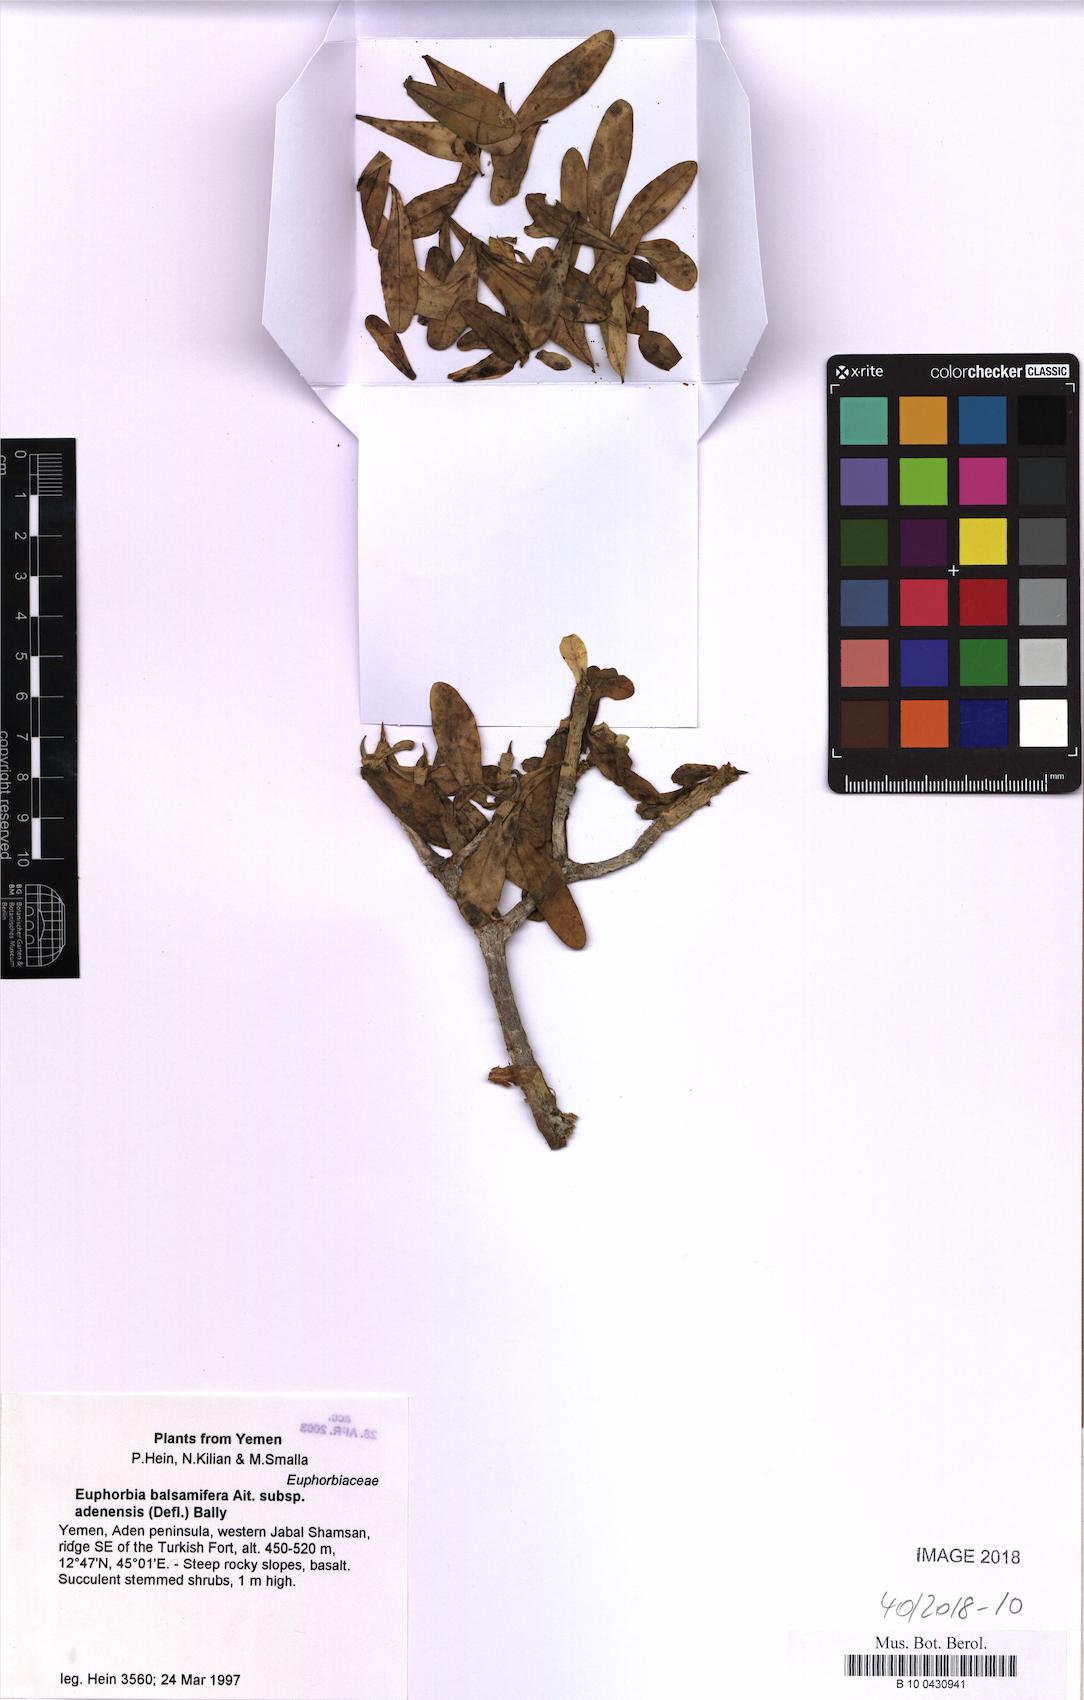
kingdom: Plantae
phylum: Tracheophyta
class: Magnoliopsida
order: Malpighiales
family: Euphorbiaceae
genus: Euphorbia
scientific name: Euphorbia adenensis
